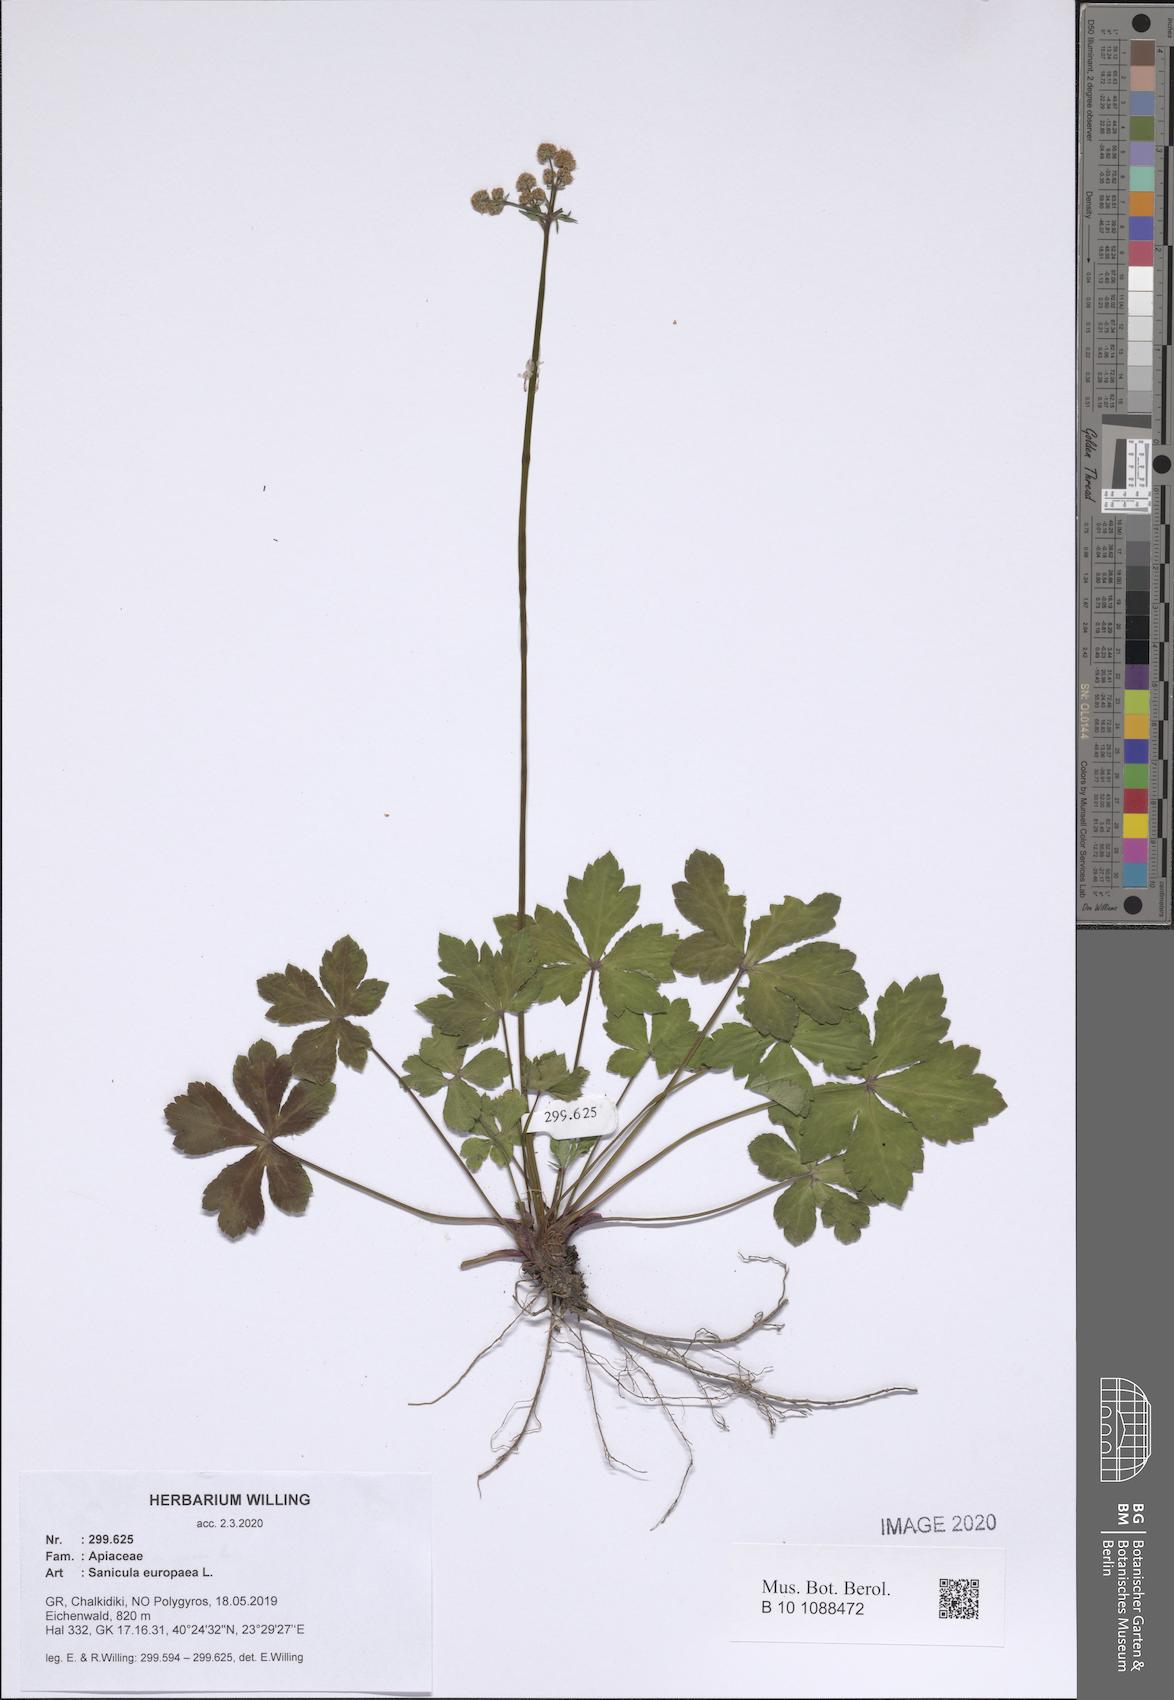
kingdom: Plantae
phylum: Tracheophyta
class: Magnoliopsida
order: Apiales
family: Apiaceae
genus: Sanicula
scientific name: Sanicula europaea
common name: Sanicle
